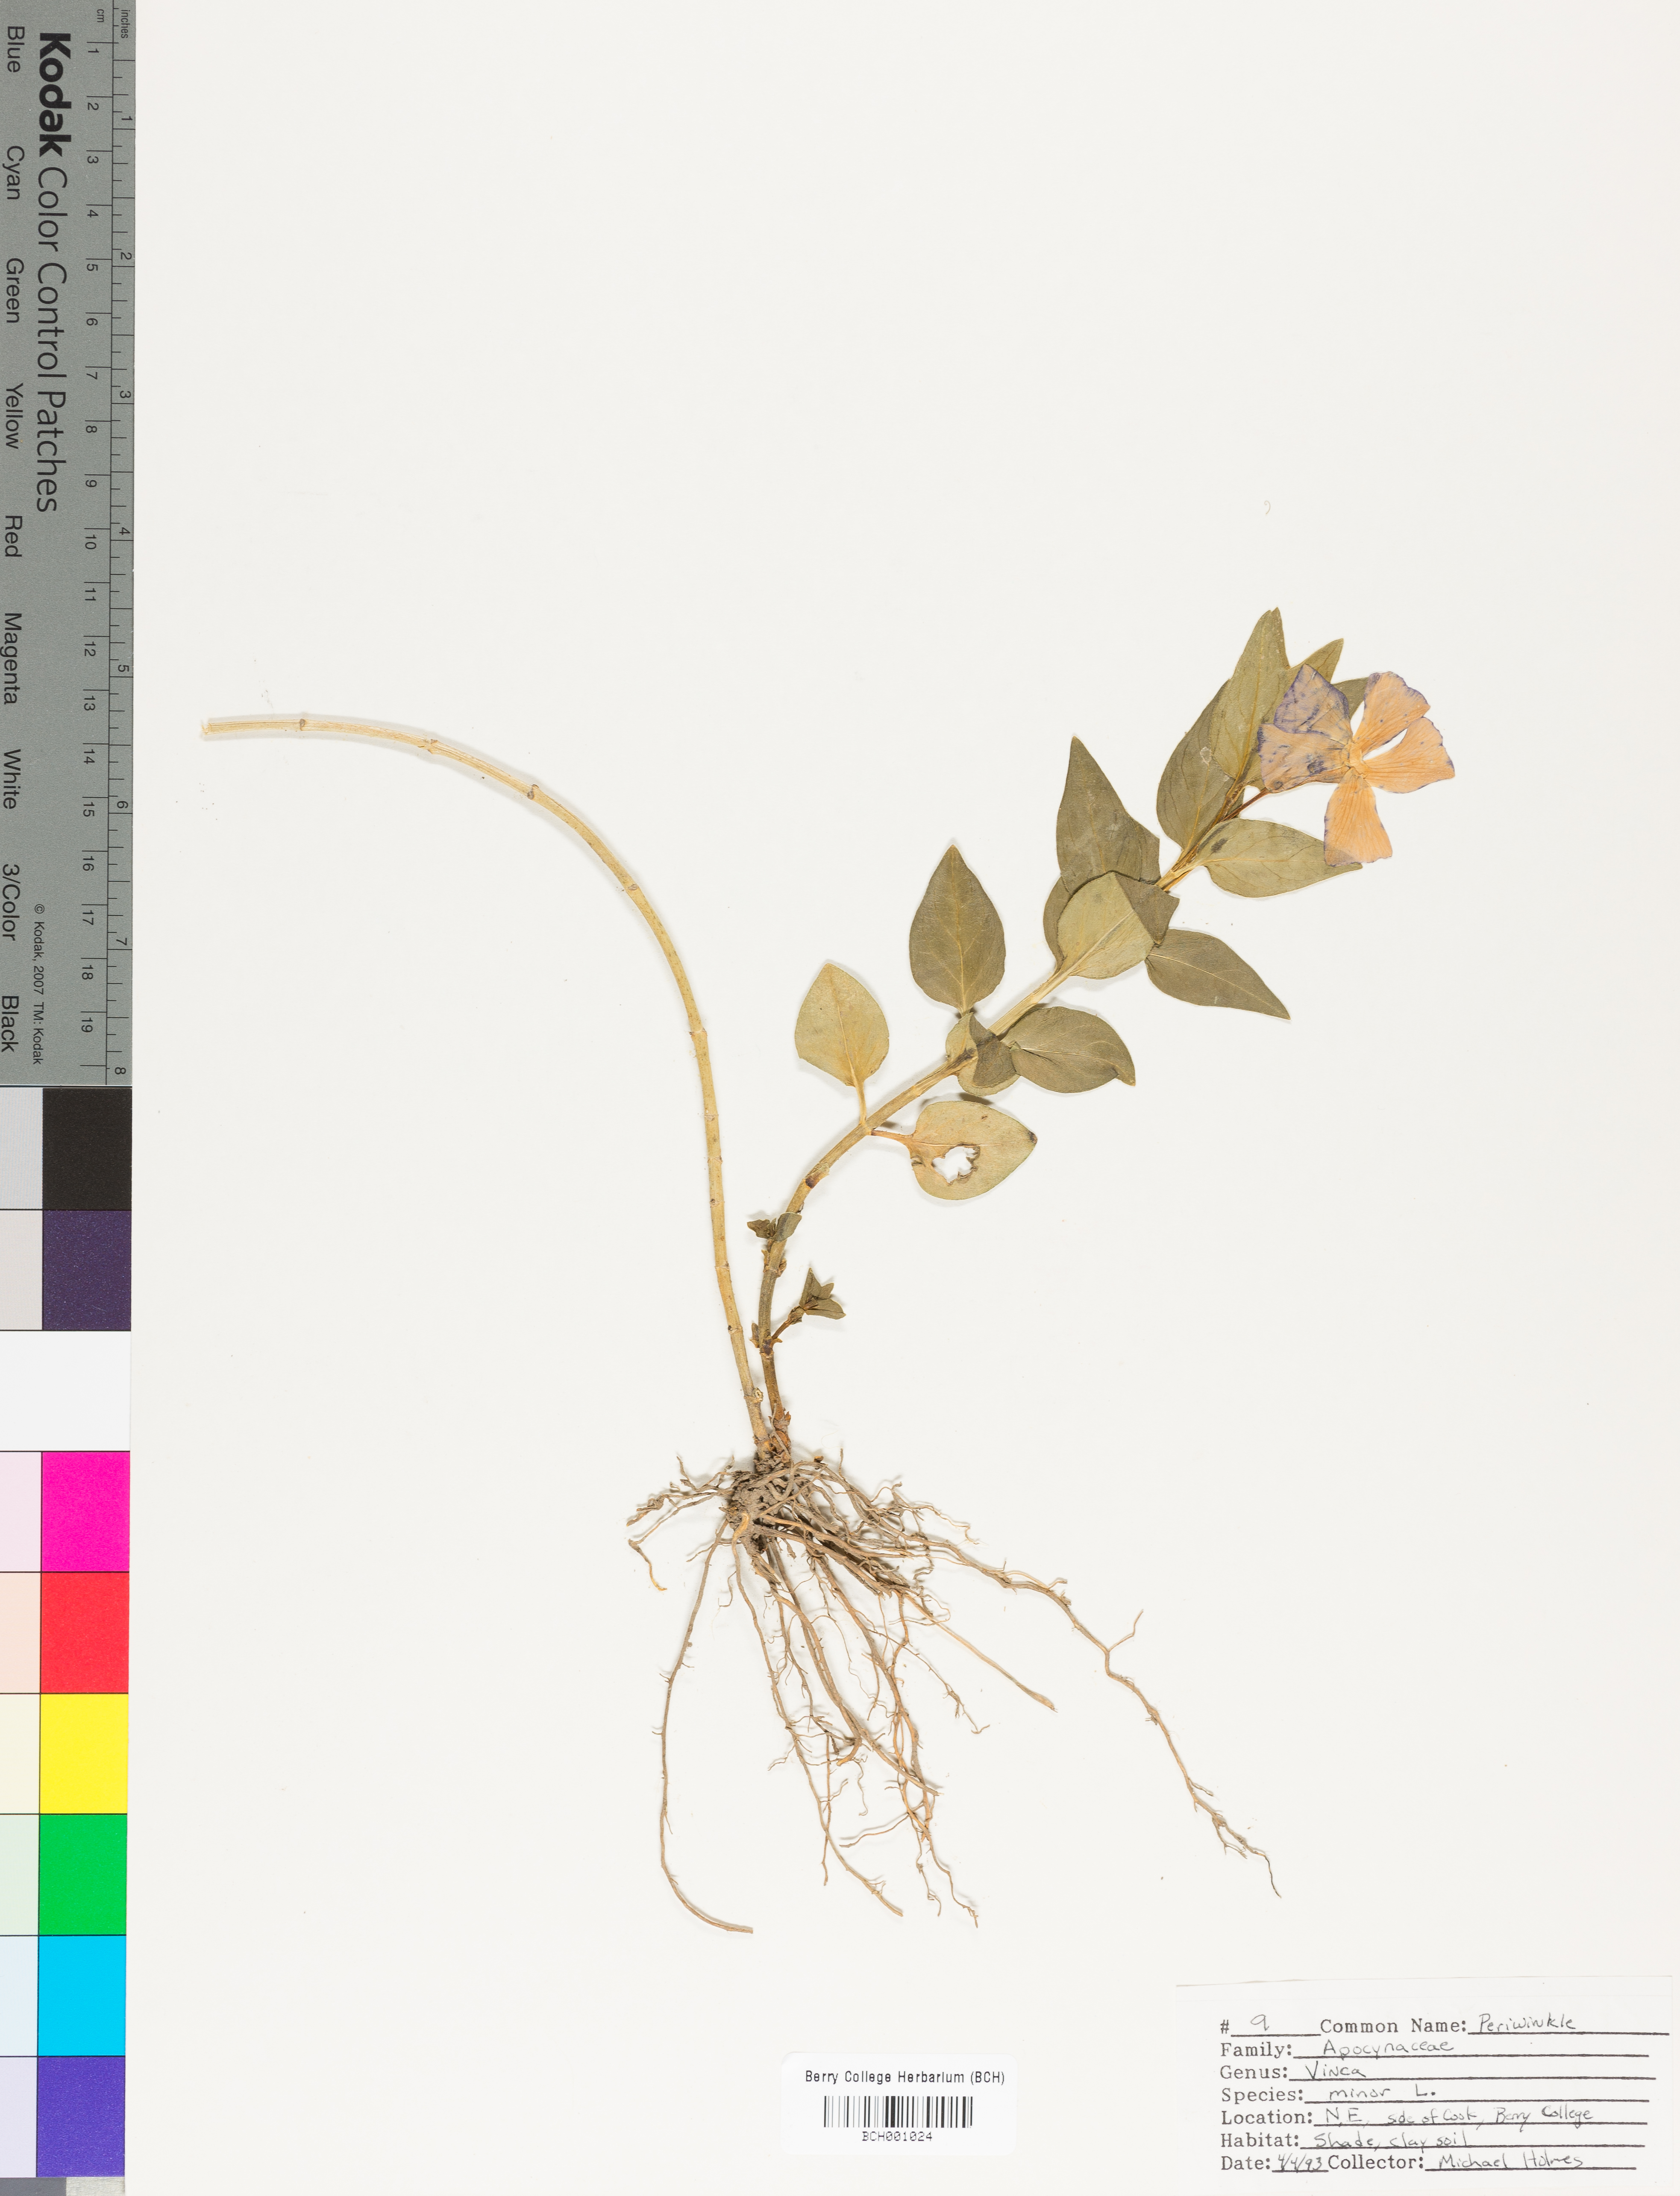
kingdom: Plantae
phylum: Tracheophyta
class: Magnoliopsida
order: Gentianales
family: Apocynaceae
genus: Vinca
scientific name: Vinca minor
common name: Lesser periwinkle
